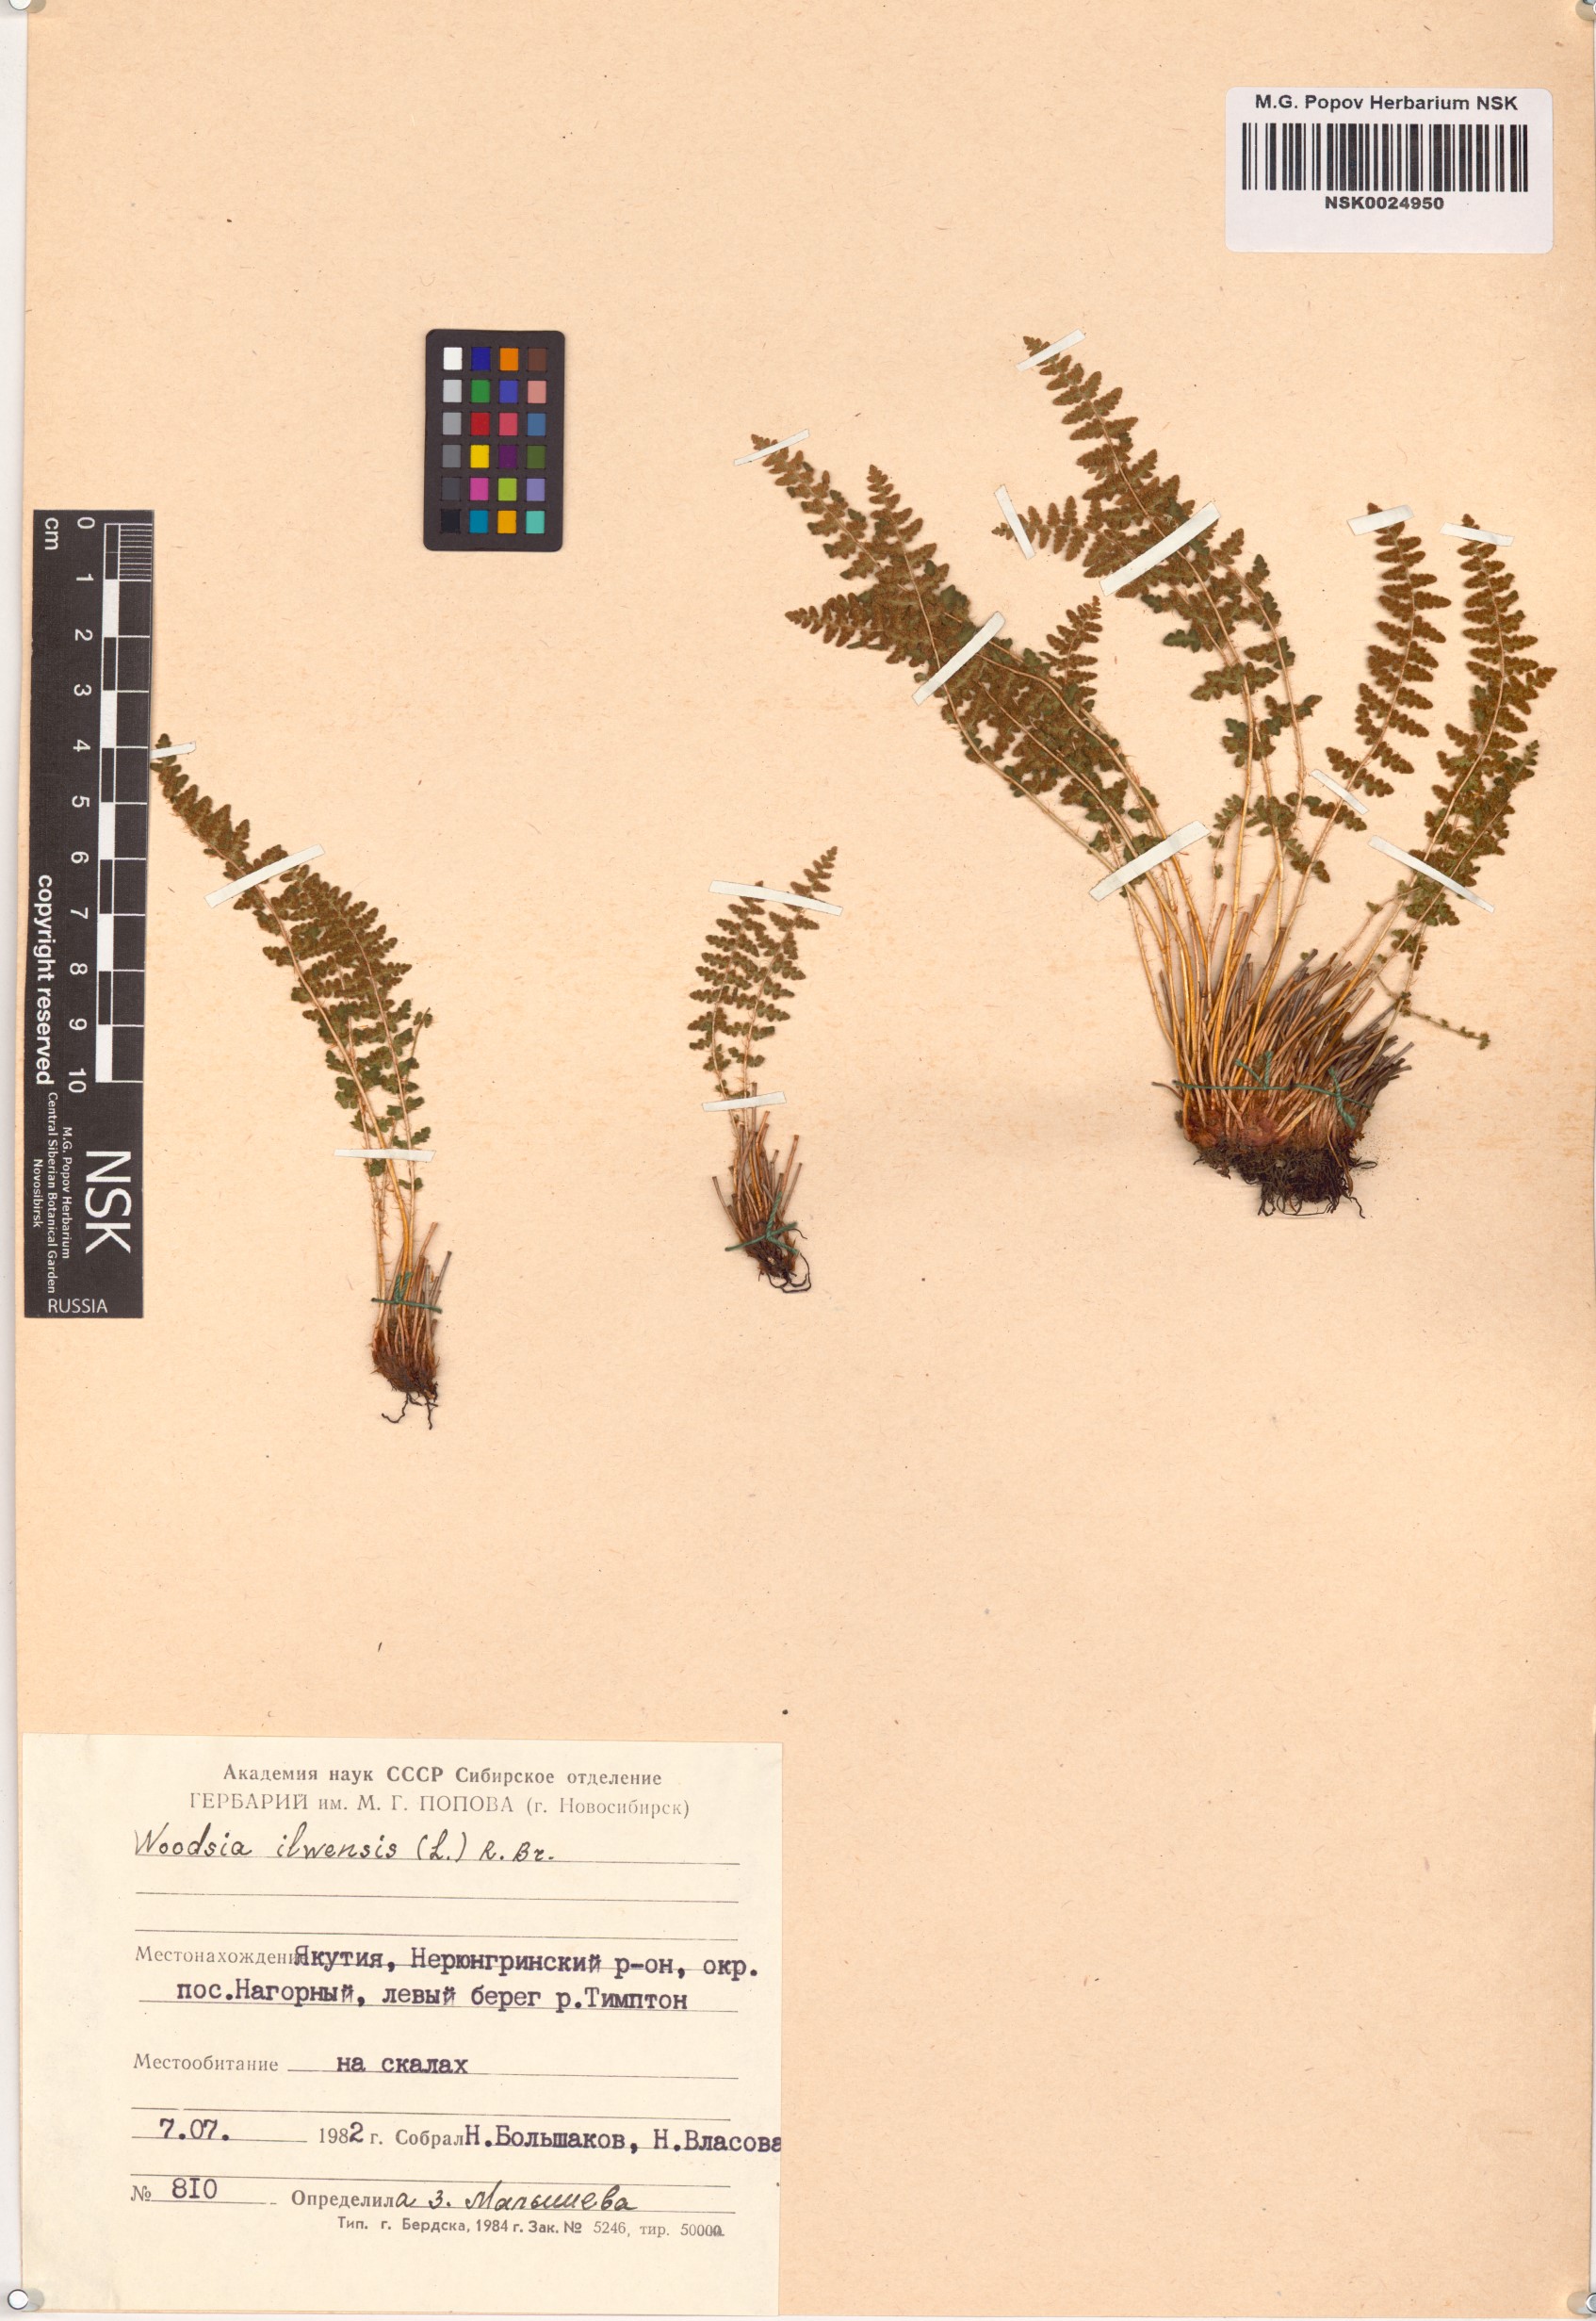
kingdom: Plantae
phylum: Tracheophyta
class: Polypodiopsida
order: Polypodiales
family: Woodsiaceae
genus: Woodsia
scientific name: Woodsia ilvensis
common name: Fragrant woodsia
